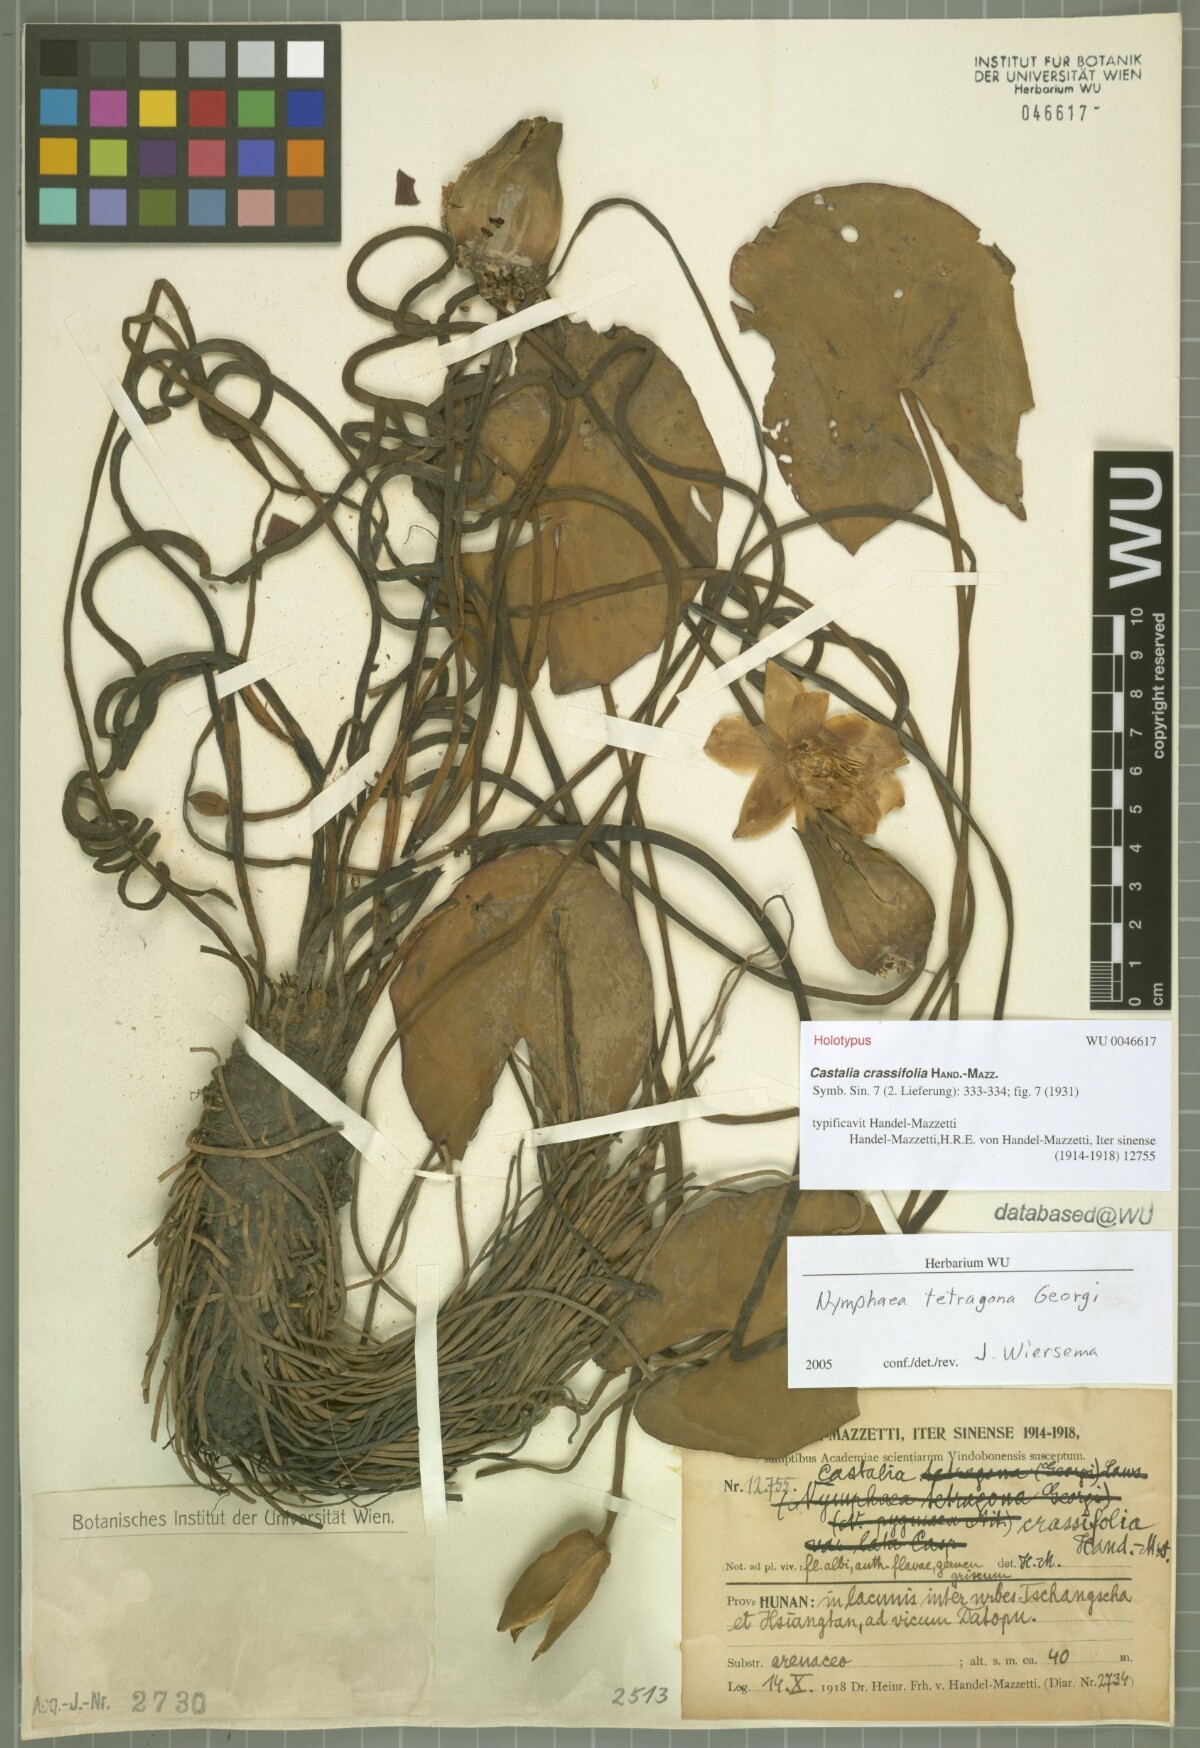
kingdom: Plantae
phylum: Tracheophyta
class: Magnoliopsida
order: Nymphaeales
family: Nymphaeaceae
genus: Nymphaea
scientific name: Nymphaea tetragona
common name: Pygmy water-lily
